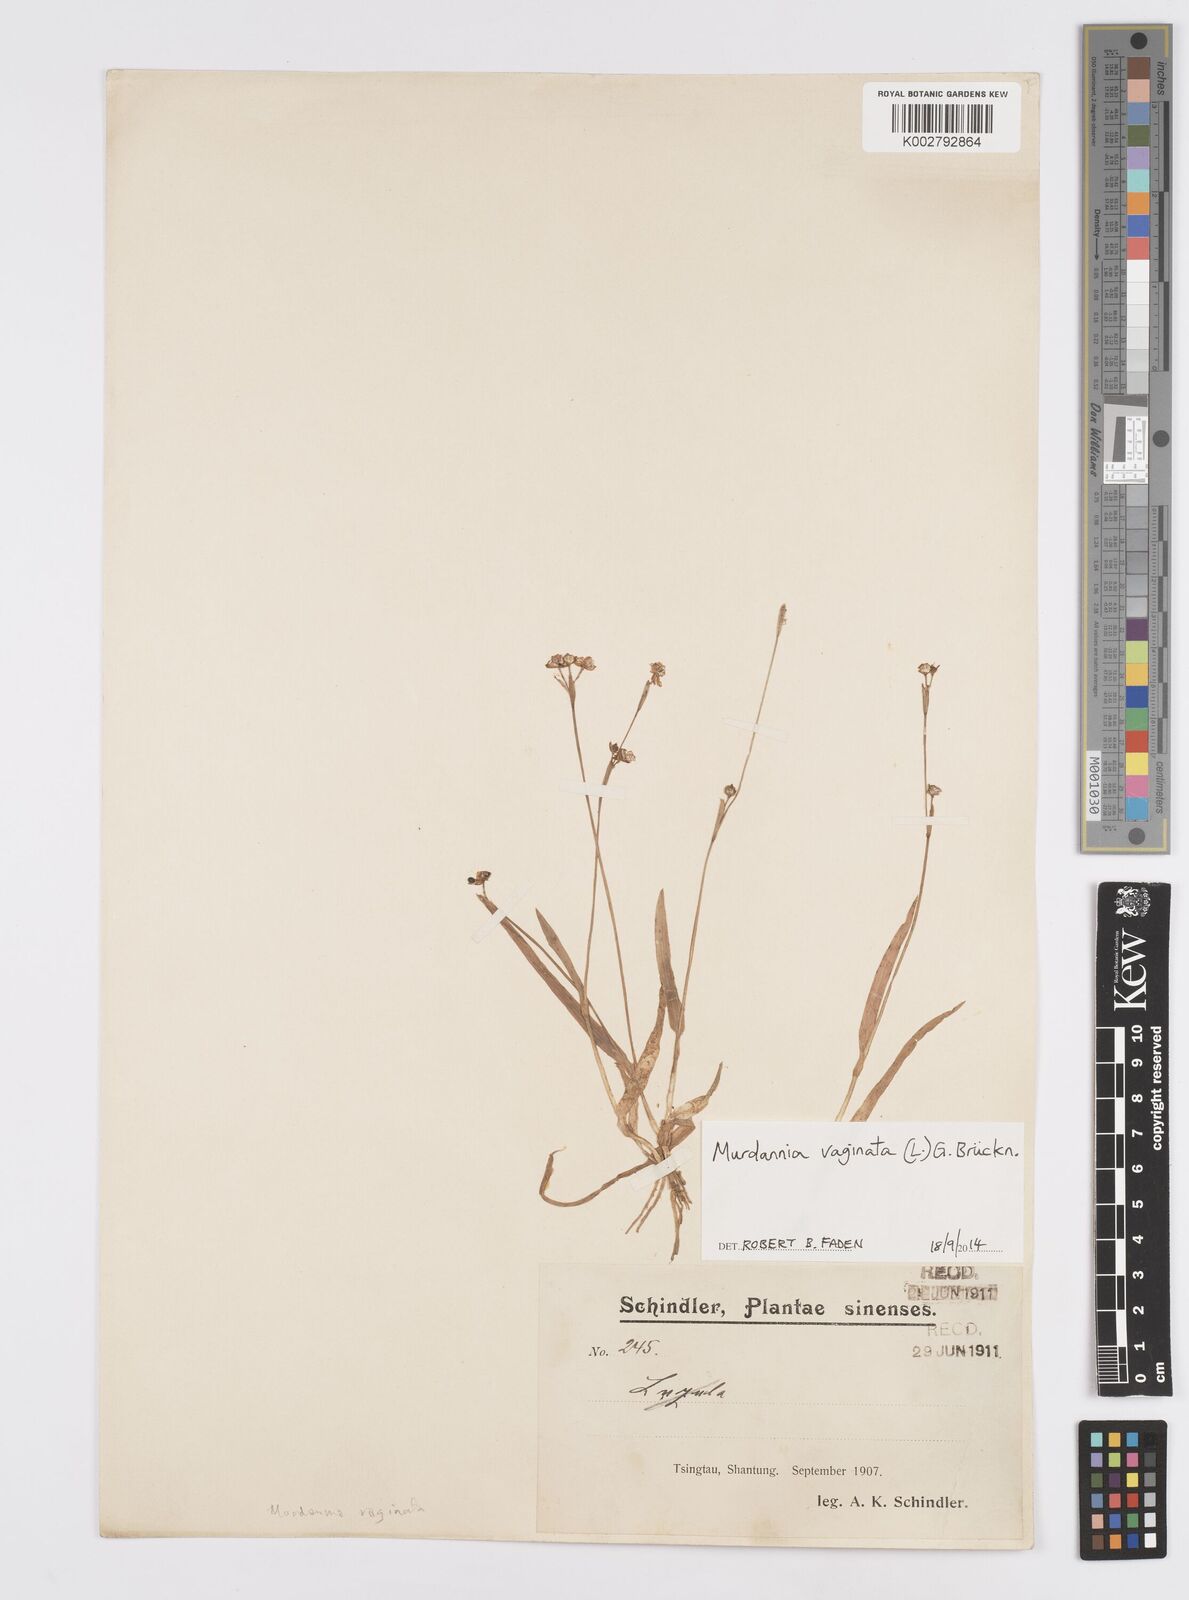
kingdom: Plantae
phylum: Tracheophyta
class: Liliopsida
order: Commelinales
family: Commelinaceae
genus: Murdannia
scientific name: Murdannia vaginata
